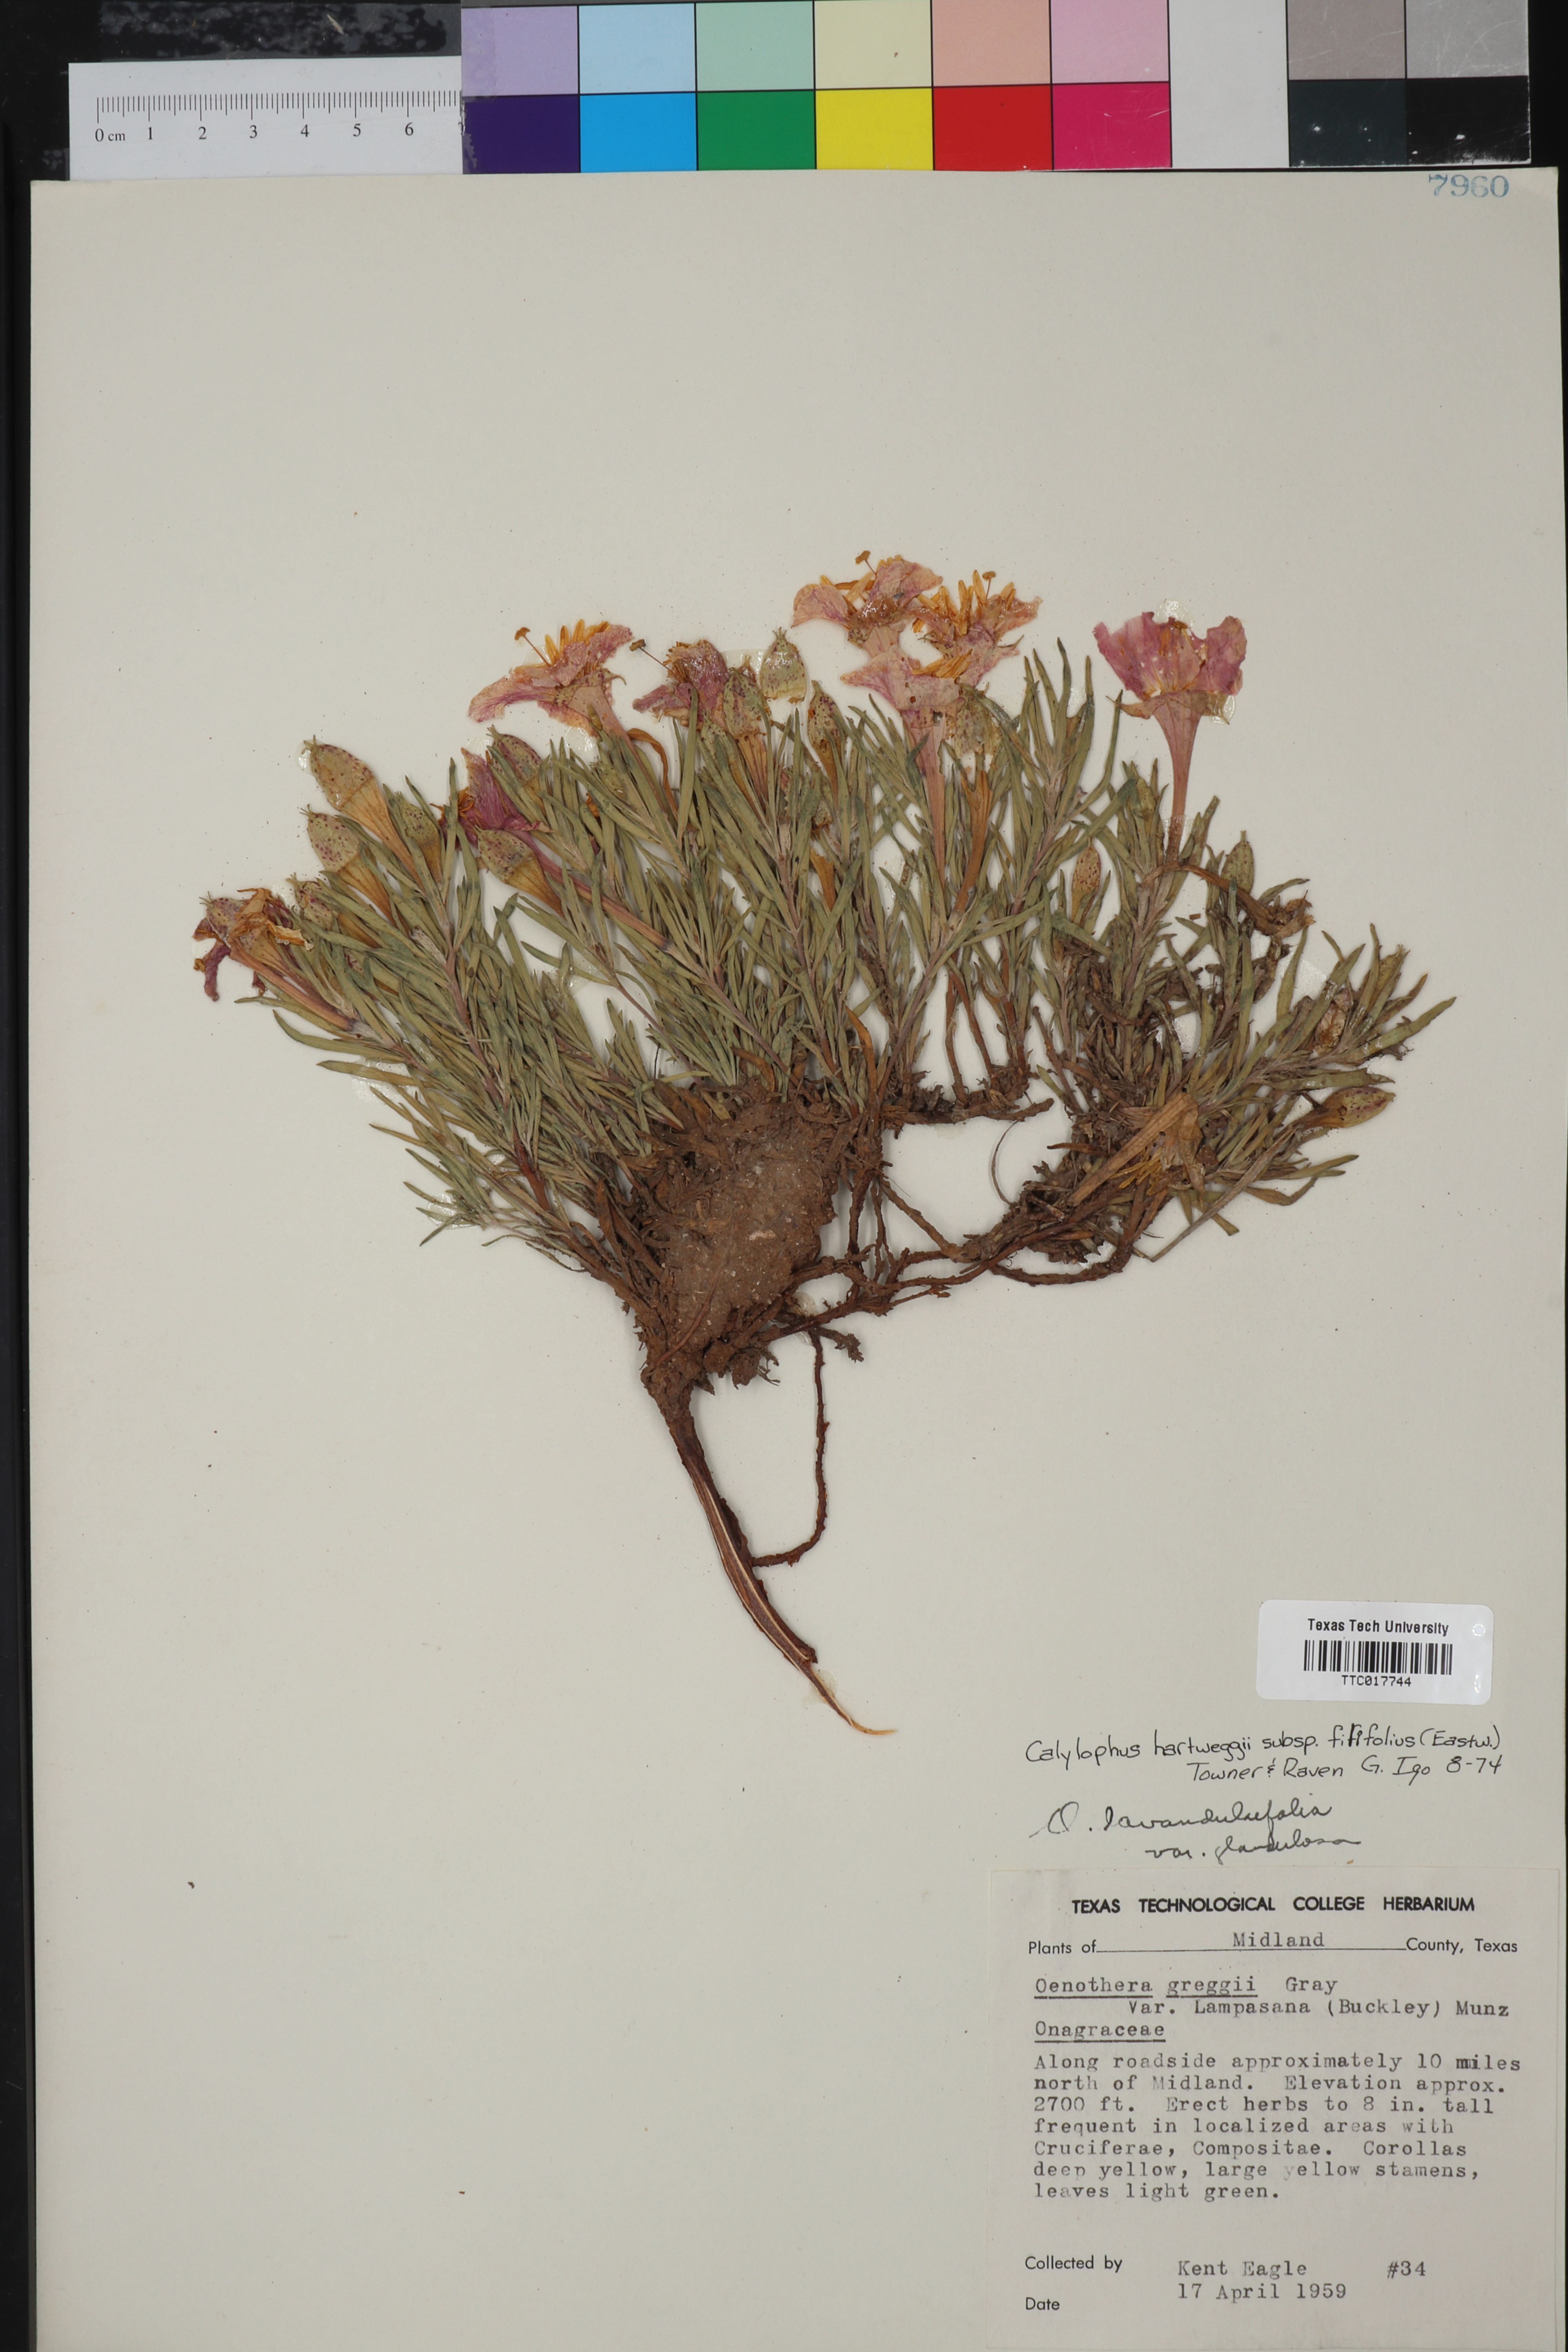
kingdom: Plantae
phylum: Tracheophyta
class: Magnoliopsida
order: Myrtales
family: Onagraceae
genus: Oenothera
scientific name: Oenothera hartwegii
